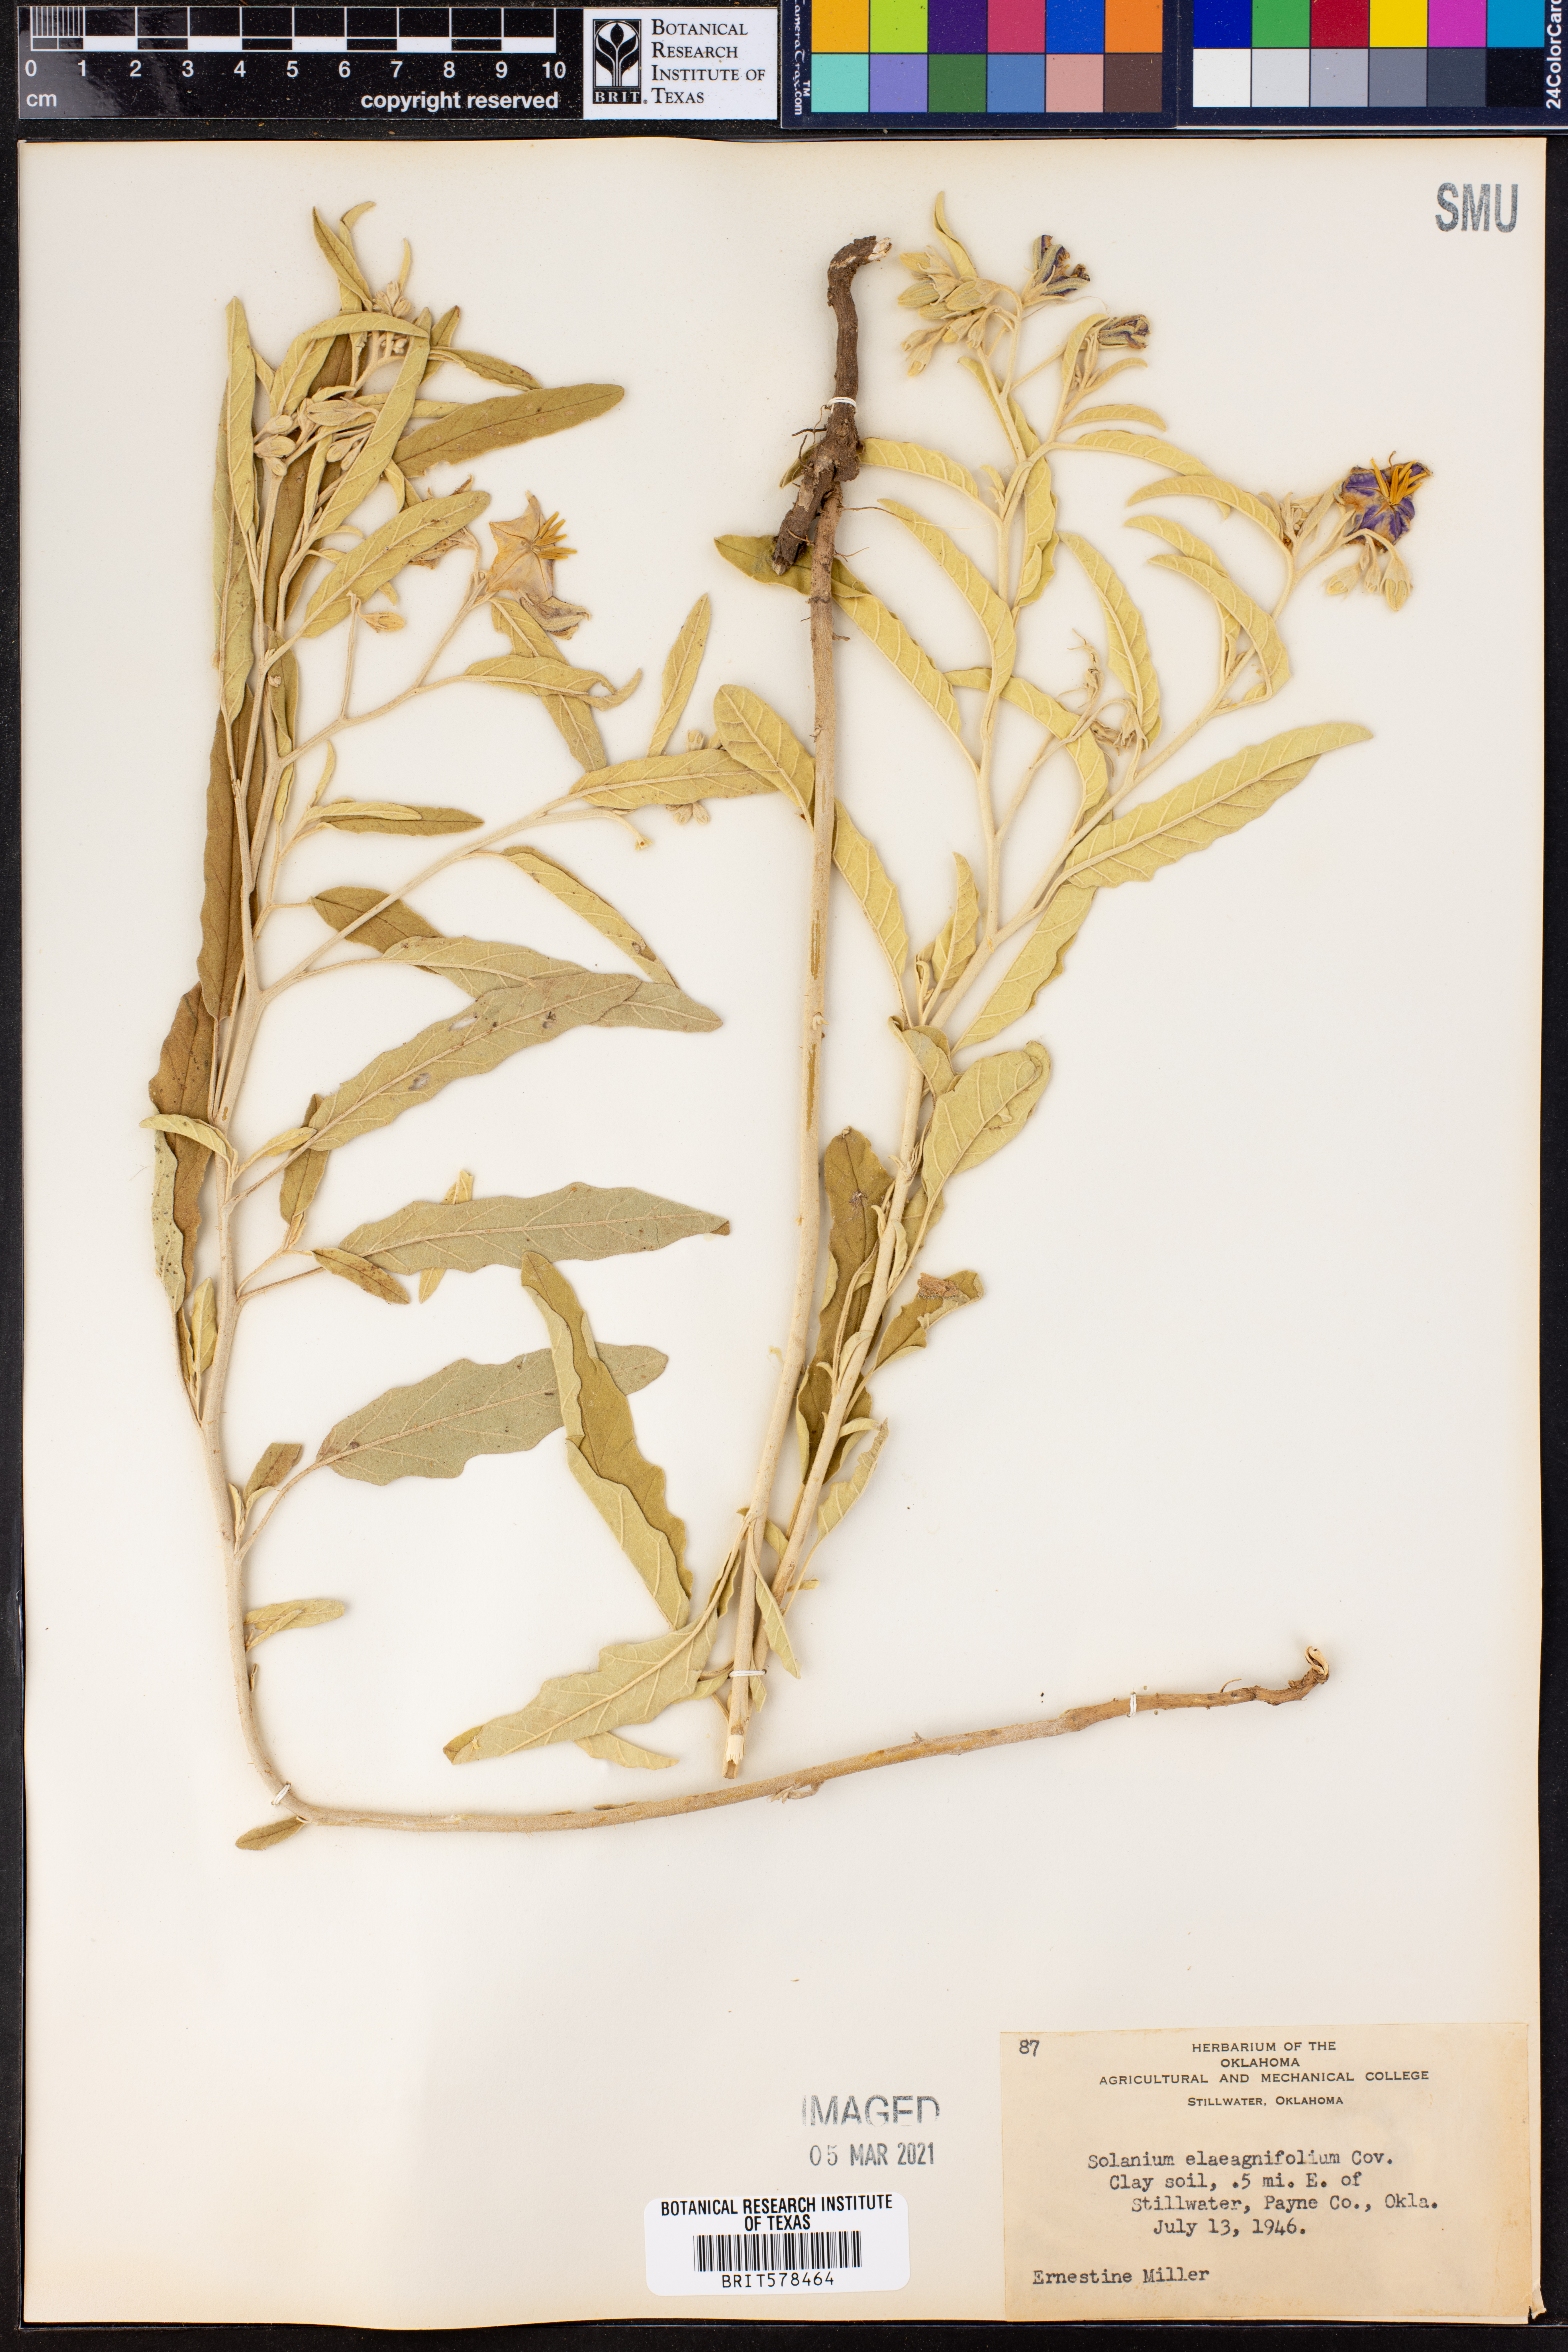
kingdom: Plantae
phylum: Tracheophyta
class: Magnoliopsida
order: Solanales
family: Solanaceae
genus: Solanum
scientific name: Solanum elaeagnifolium
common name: Silverleaf nightshade
